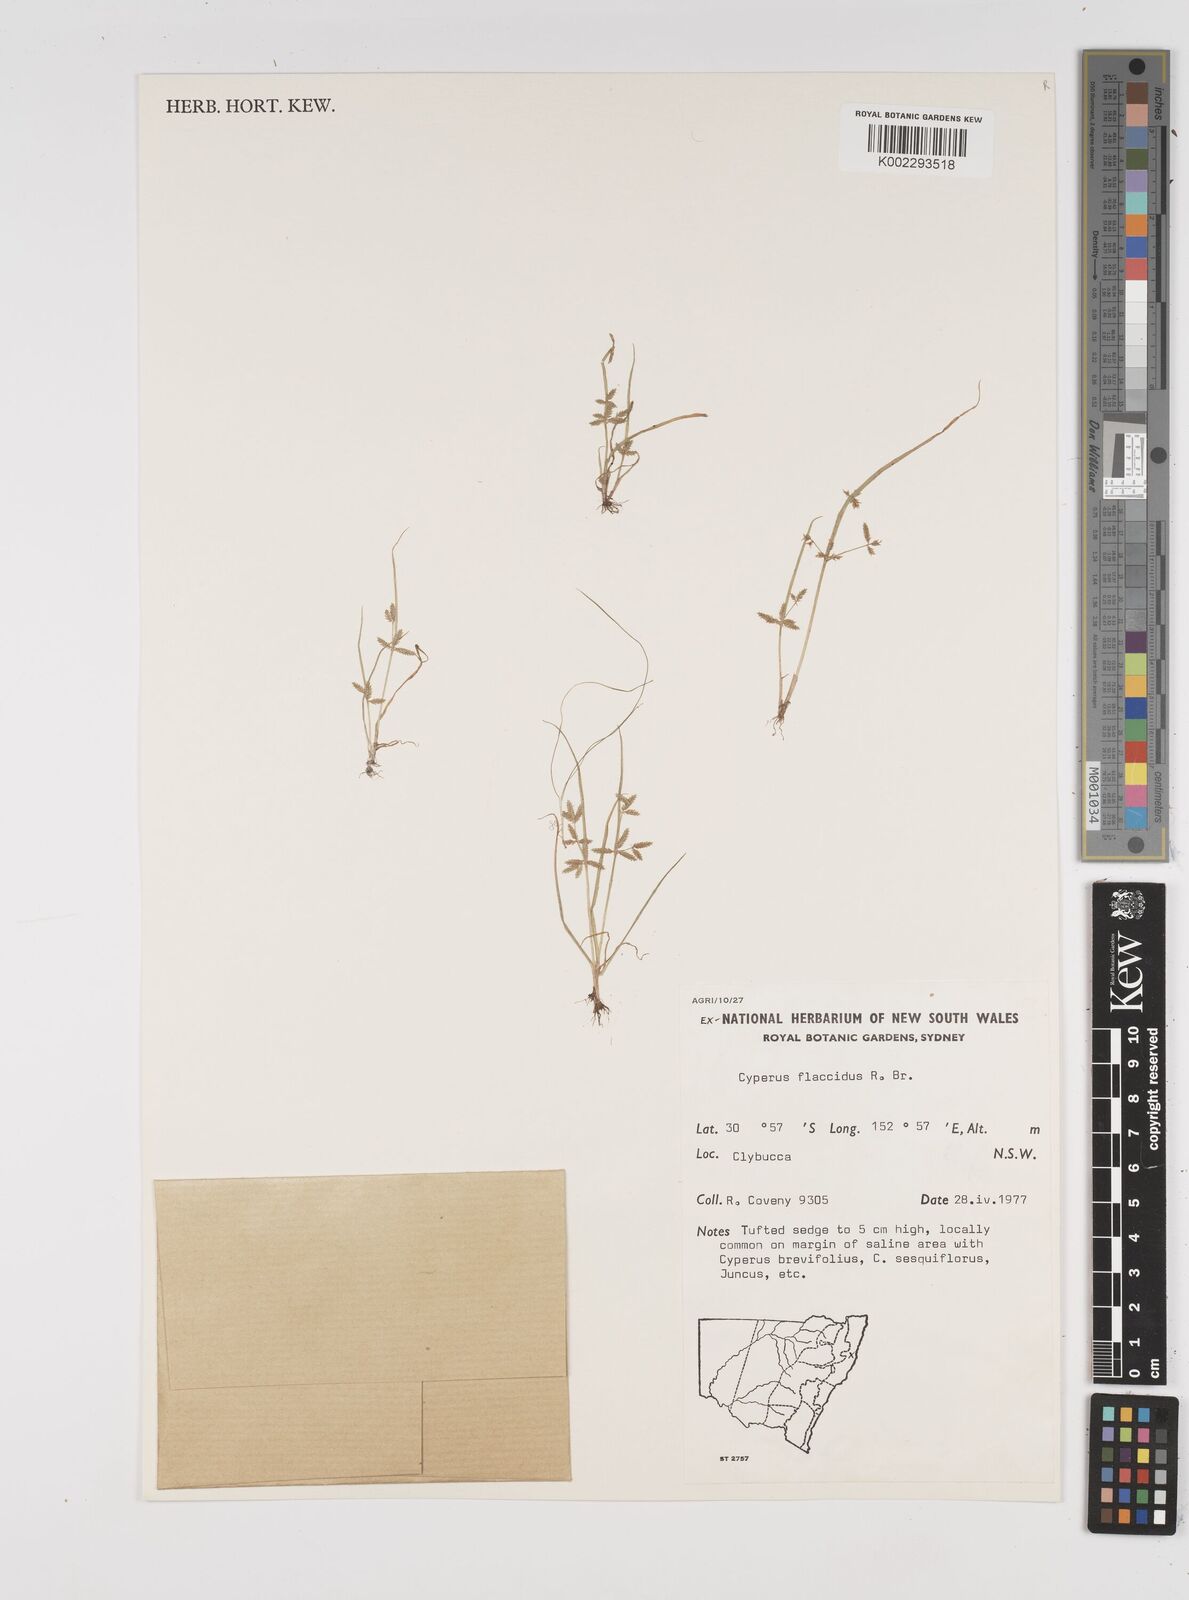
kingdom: Plantae
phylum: Tracheophyta
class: Liliopsida
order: Poales
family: Cyperaceae
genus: Cyperus
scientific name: Cyperus flaccidus
